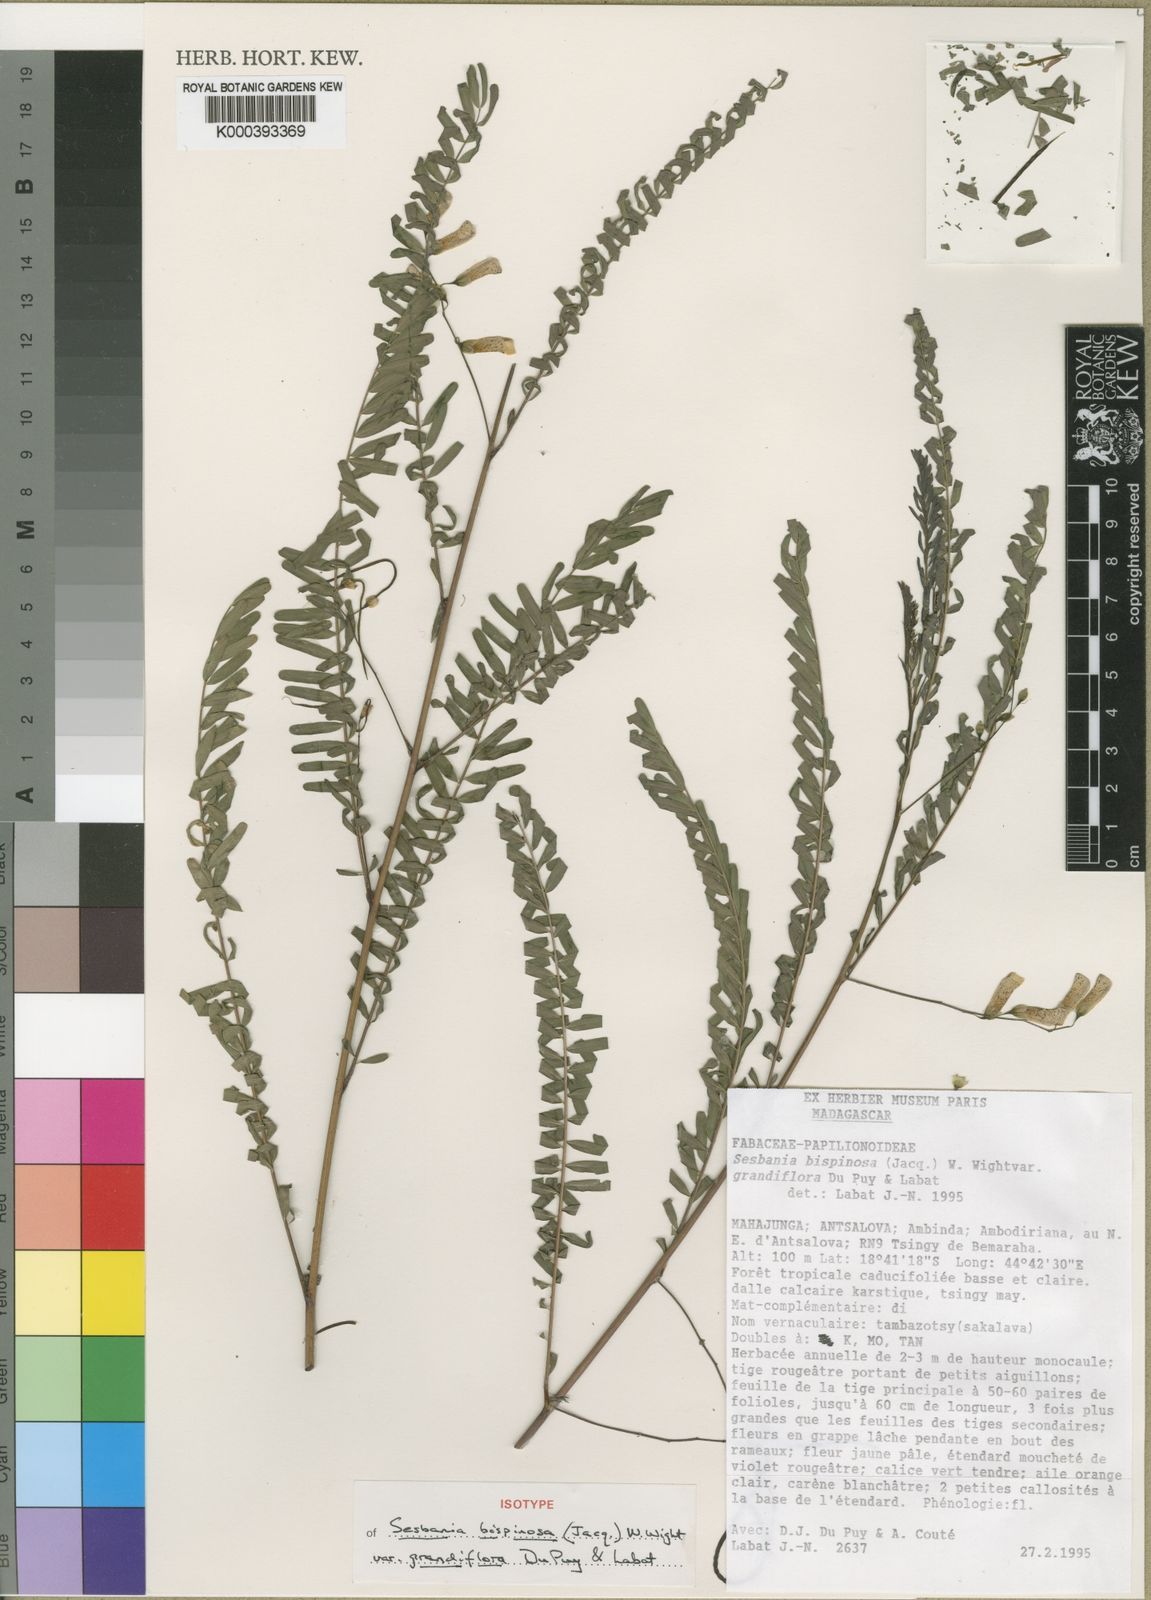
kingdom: Plantae
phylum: Tracheophyta
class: Magnoliopsida
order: Fabales
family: Fabaceae
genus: Sesbania
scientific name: Sesbania bispinosa
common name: Sesbania pea
